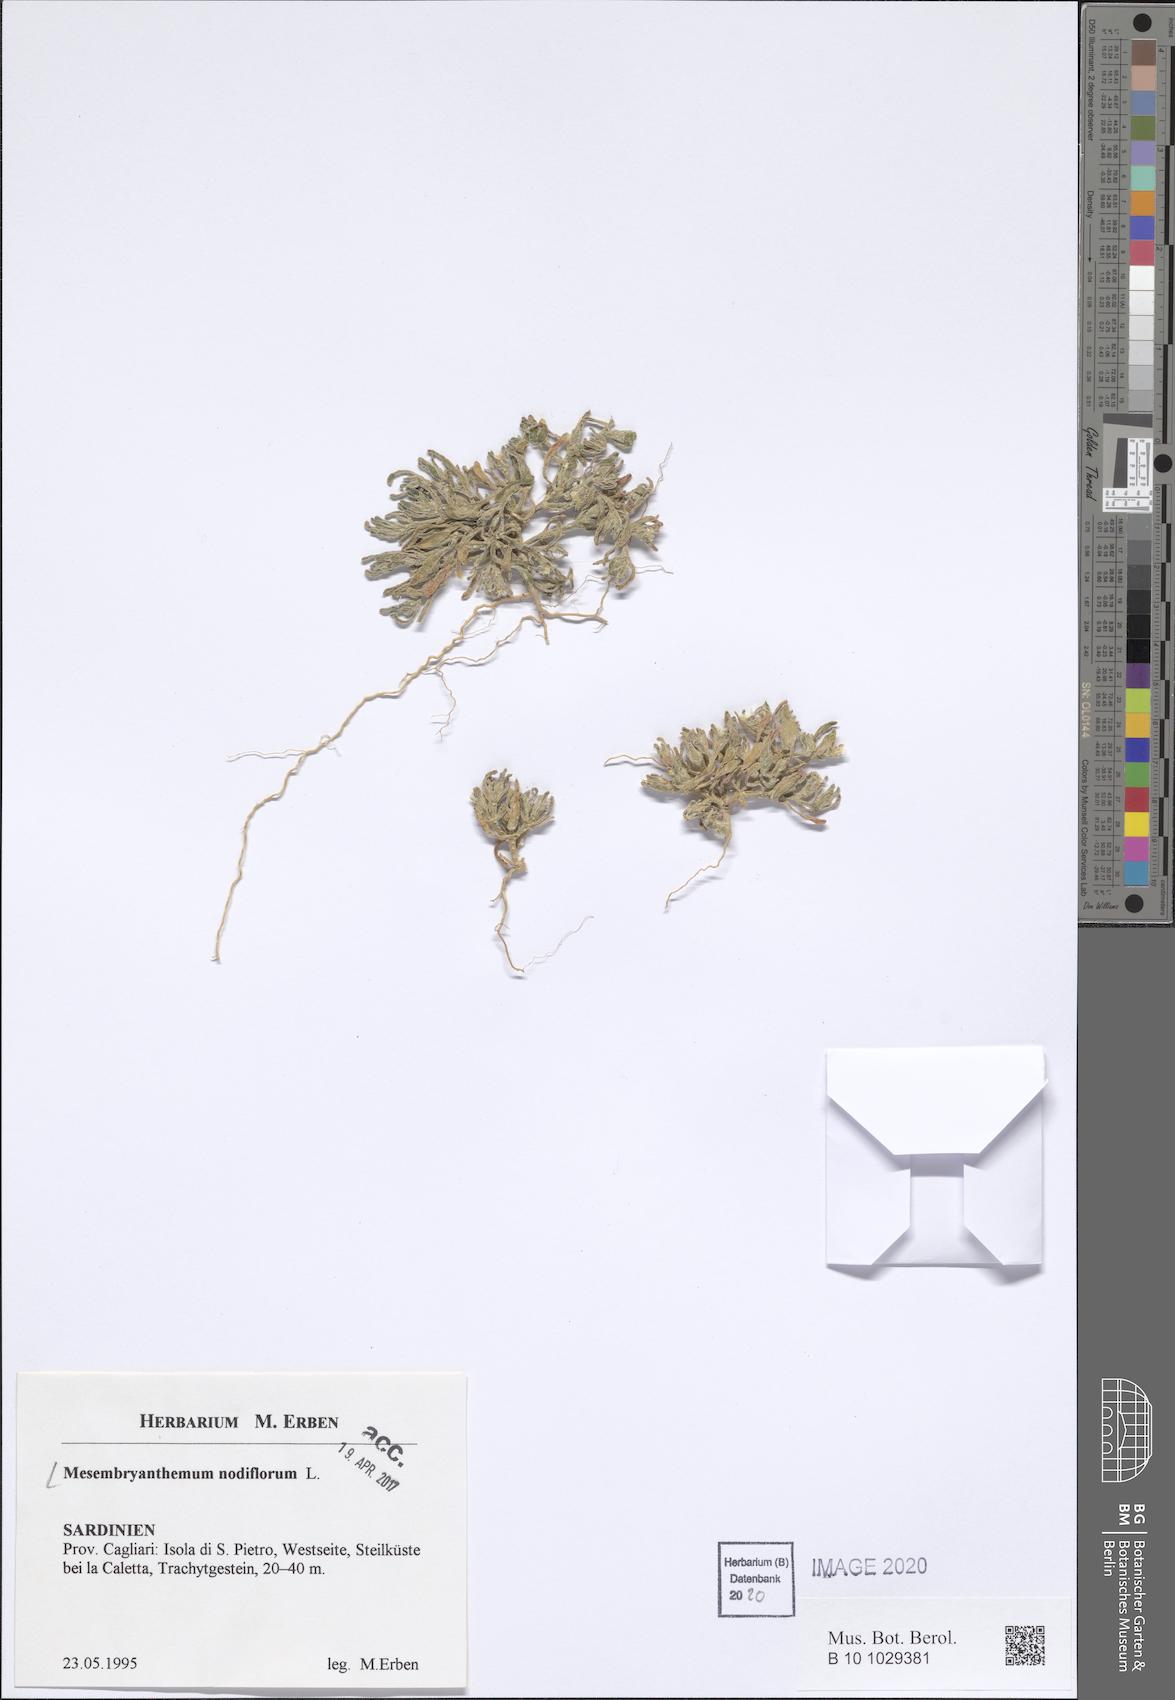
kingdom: Plantae
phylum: Tracheophyta
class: Magnoliopsida
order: Caryophyllales
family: Aizoaceae
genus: Mesembryanthemum
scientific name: Mesembryanthemum nodiflorum
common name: Slenderleaf iceplant
